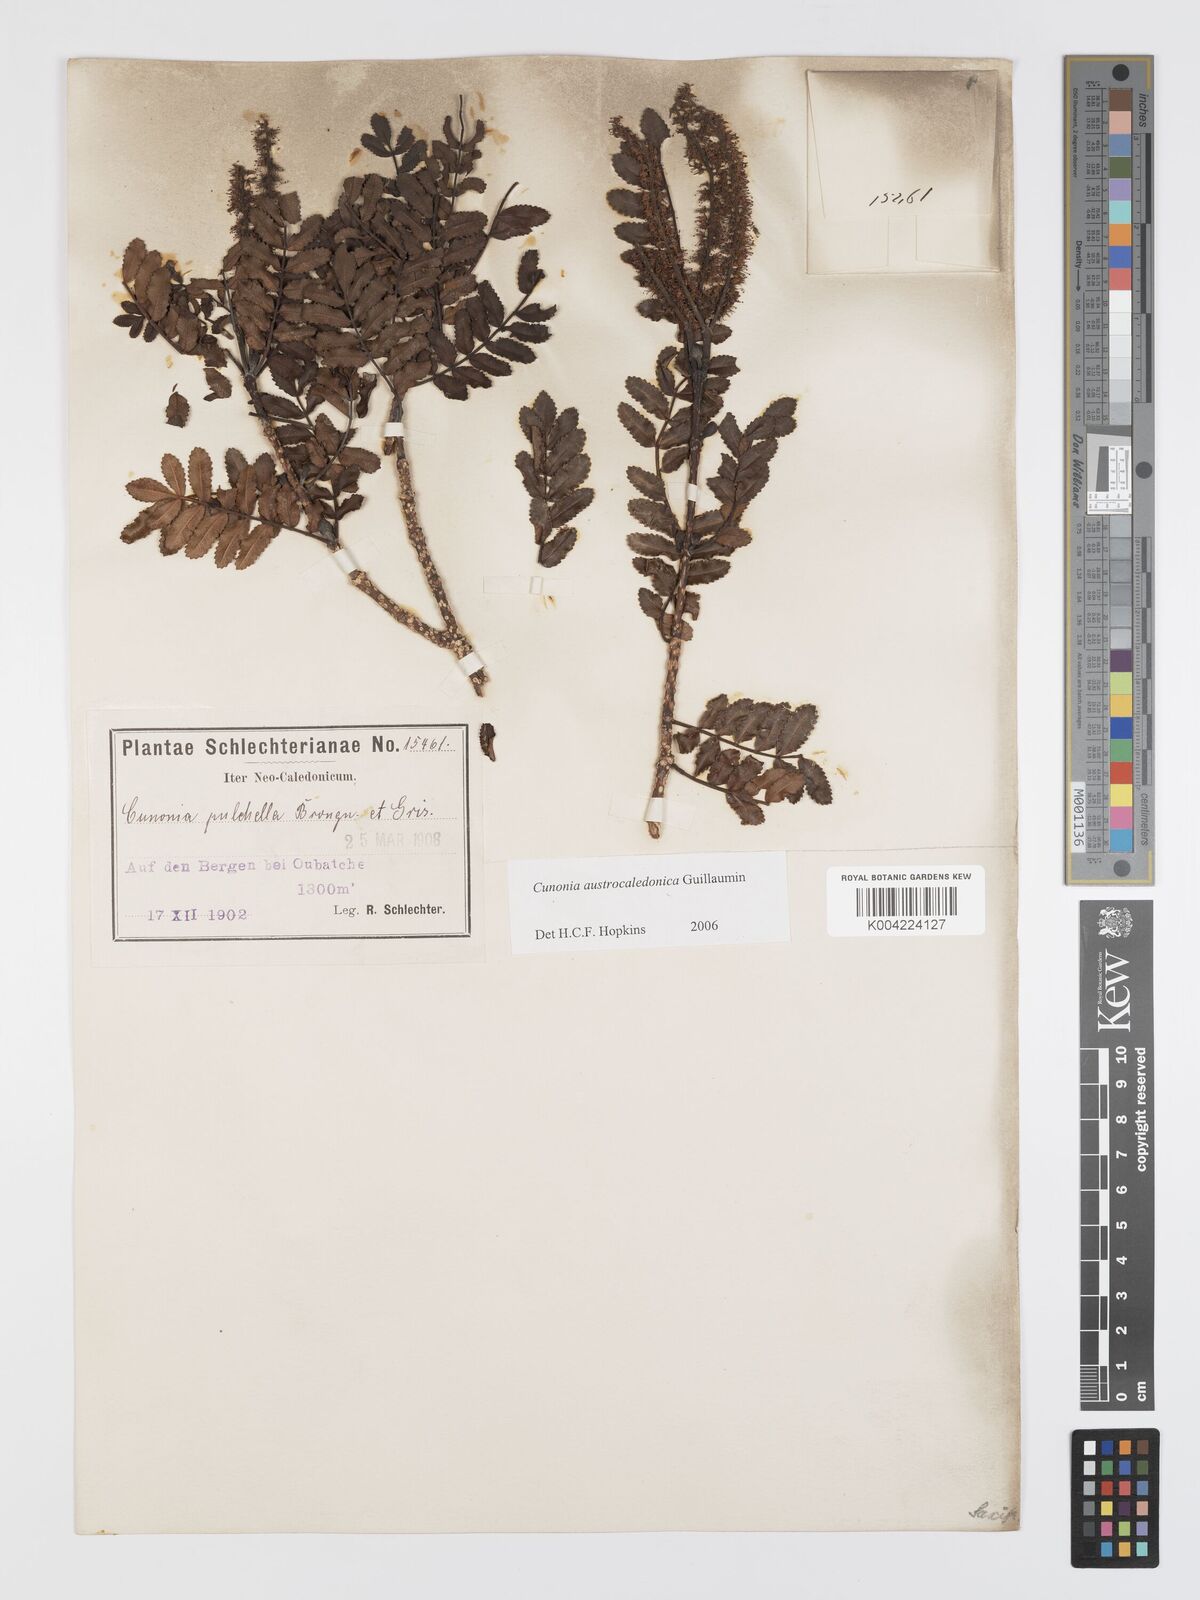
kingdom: Plantae
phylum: Tracheophyta
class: Magnoliopsida
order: Oxalidales
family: Cunoniaceae
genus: Cunonia
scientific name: Cunonia austrocaledonica
